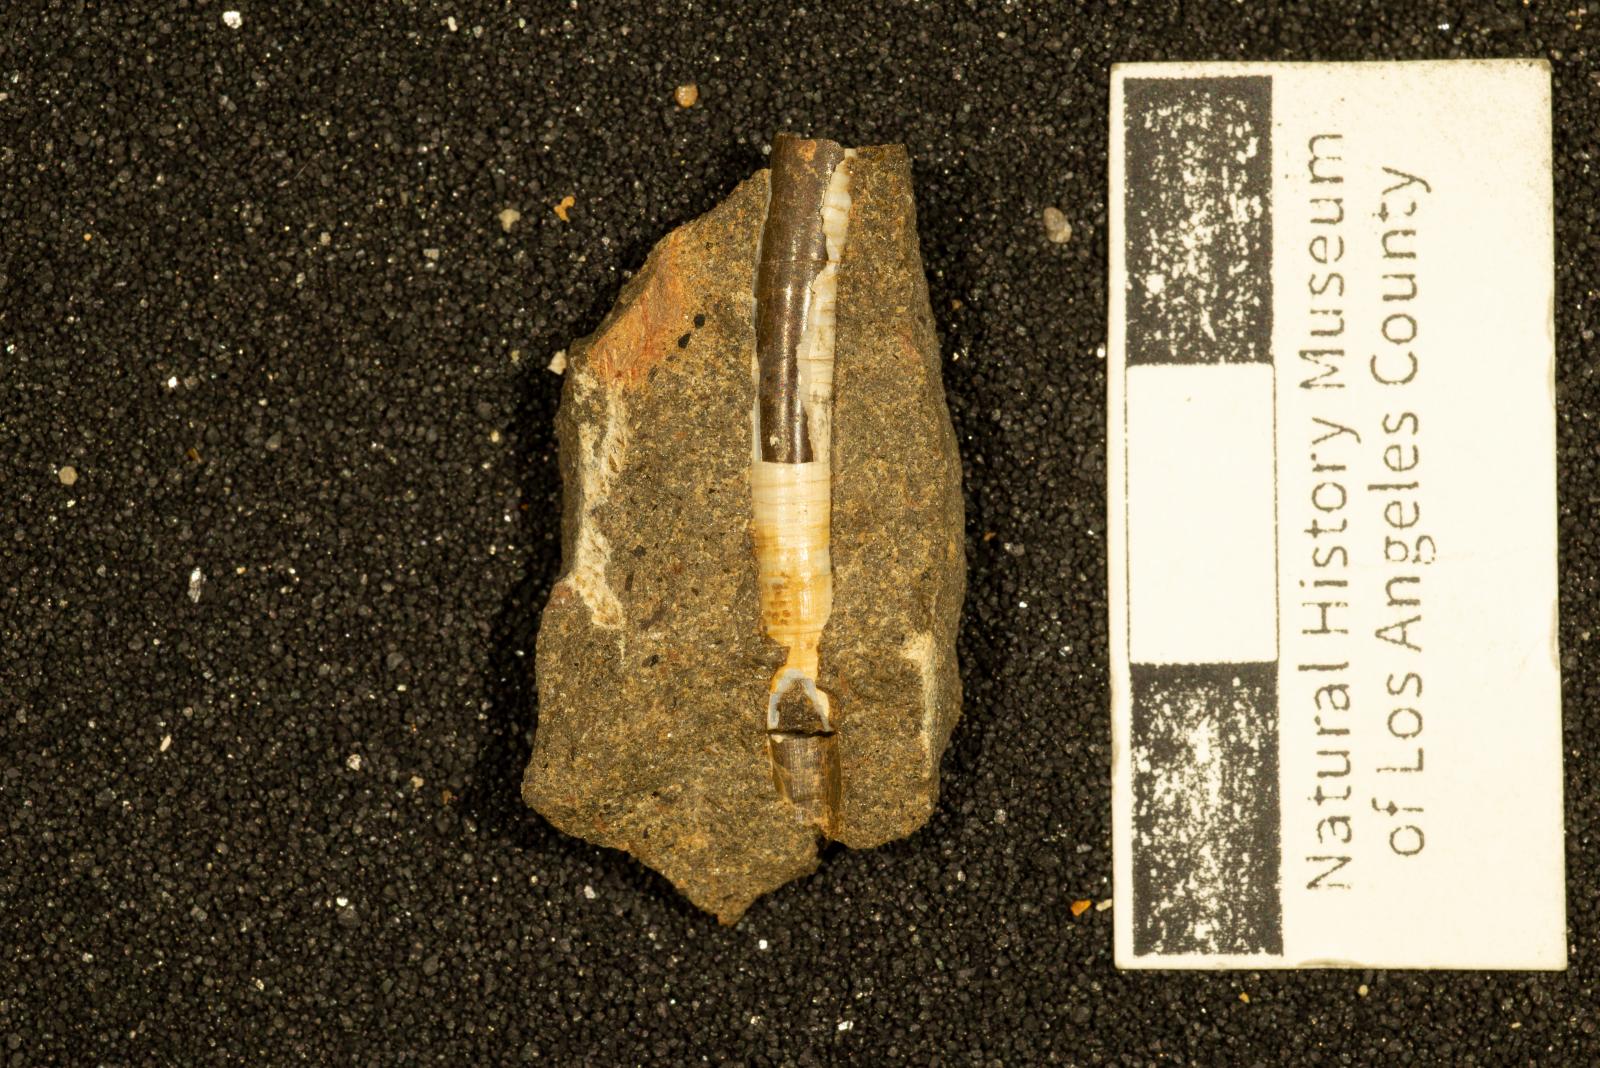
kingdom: Animalia
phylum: Mollusca
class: Scaphopoda
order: Dentaliida
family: Dentaliidae
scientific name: Dentaliidae
